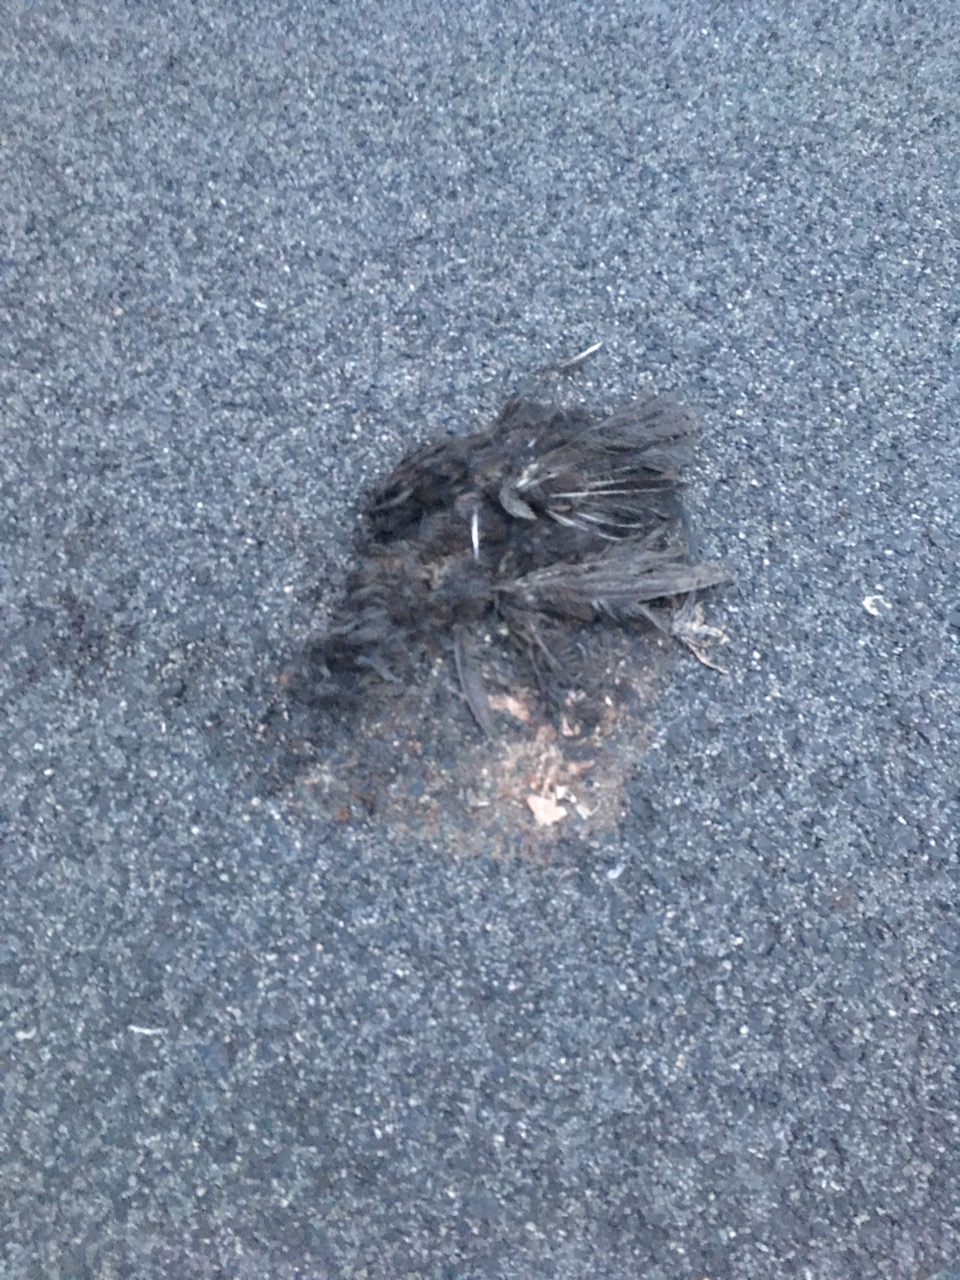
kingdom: Animalia
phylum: Chordata
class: Aves
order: Passeriformes
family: Turdidae
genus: Turdus
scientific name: Turdus merula
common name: Common blackbird
